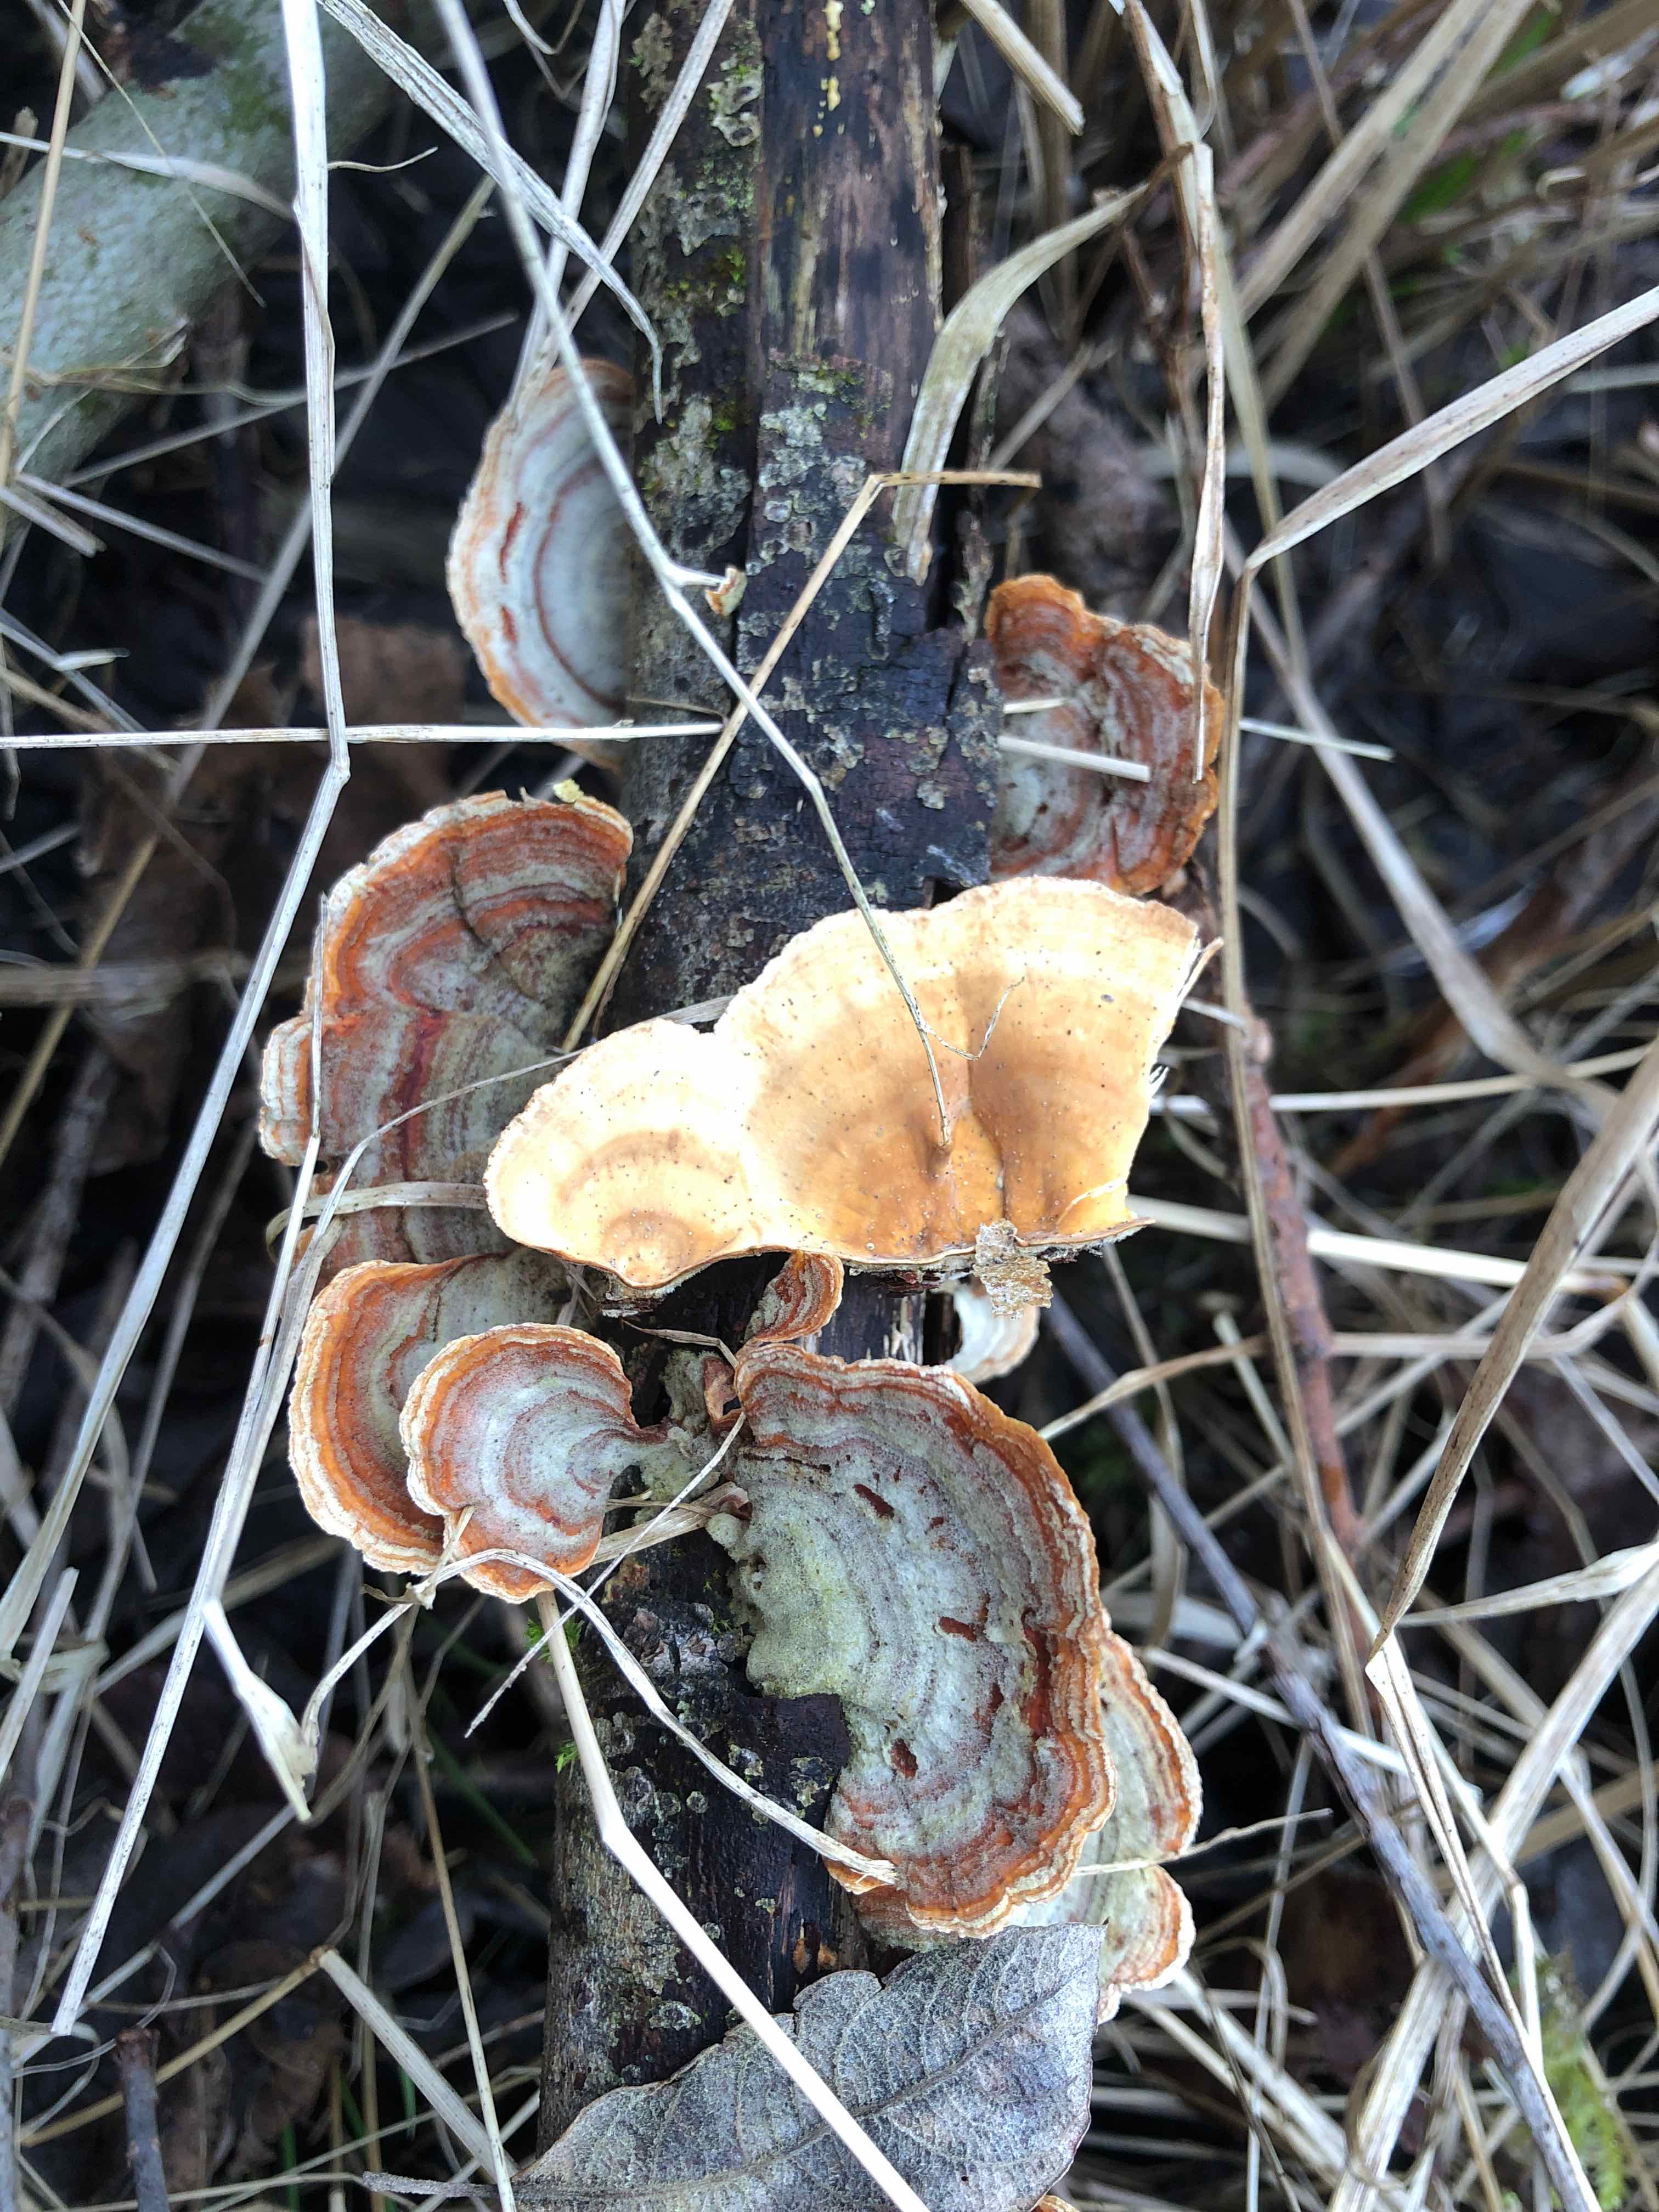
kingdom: Fungi
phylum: Basidiomycota
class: Agaricomycetes
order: Russulales
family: Stereaceae
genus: Stereum
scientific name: Stereum subtomentosum
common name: smuk lædersvamp
